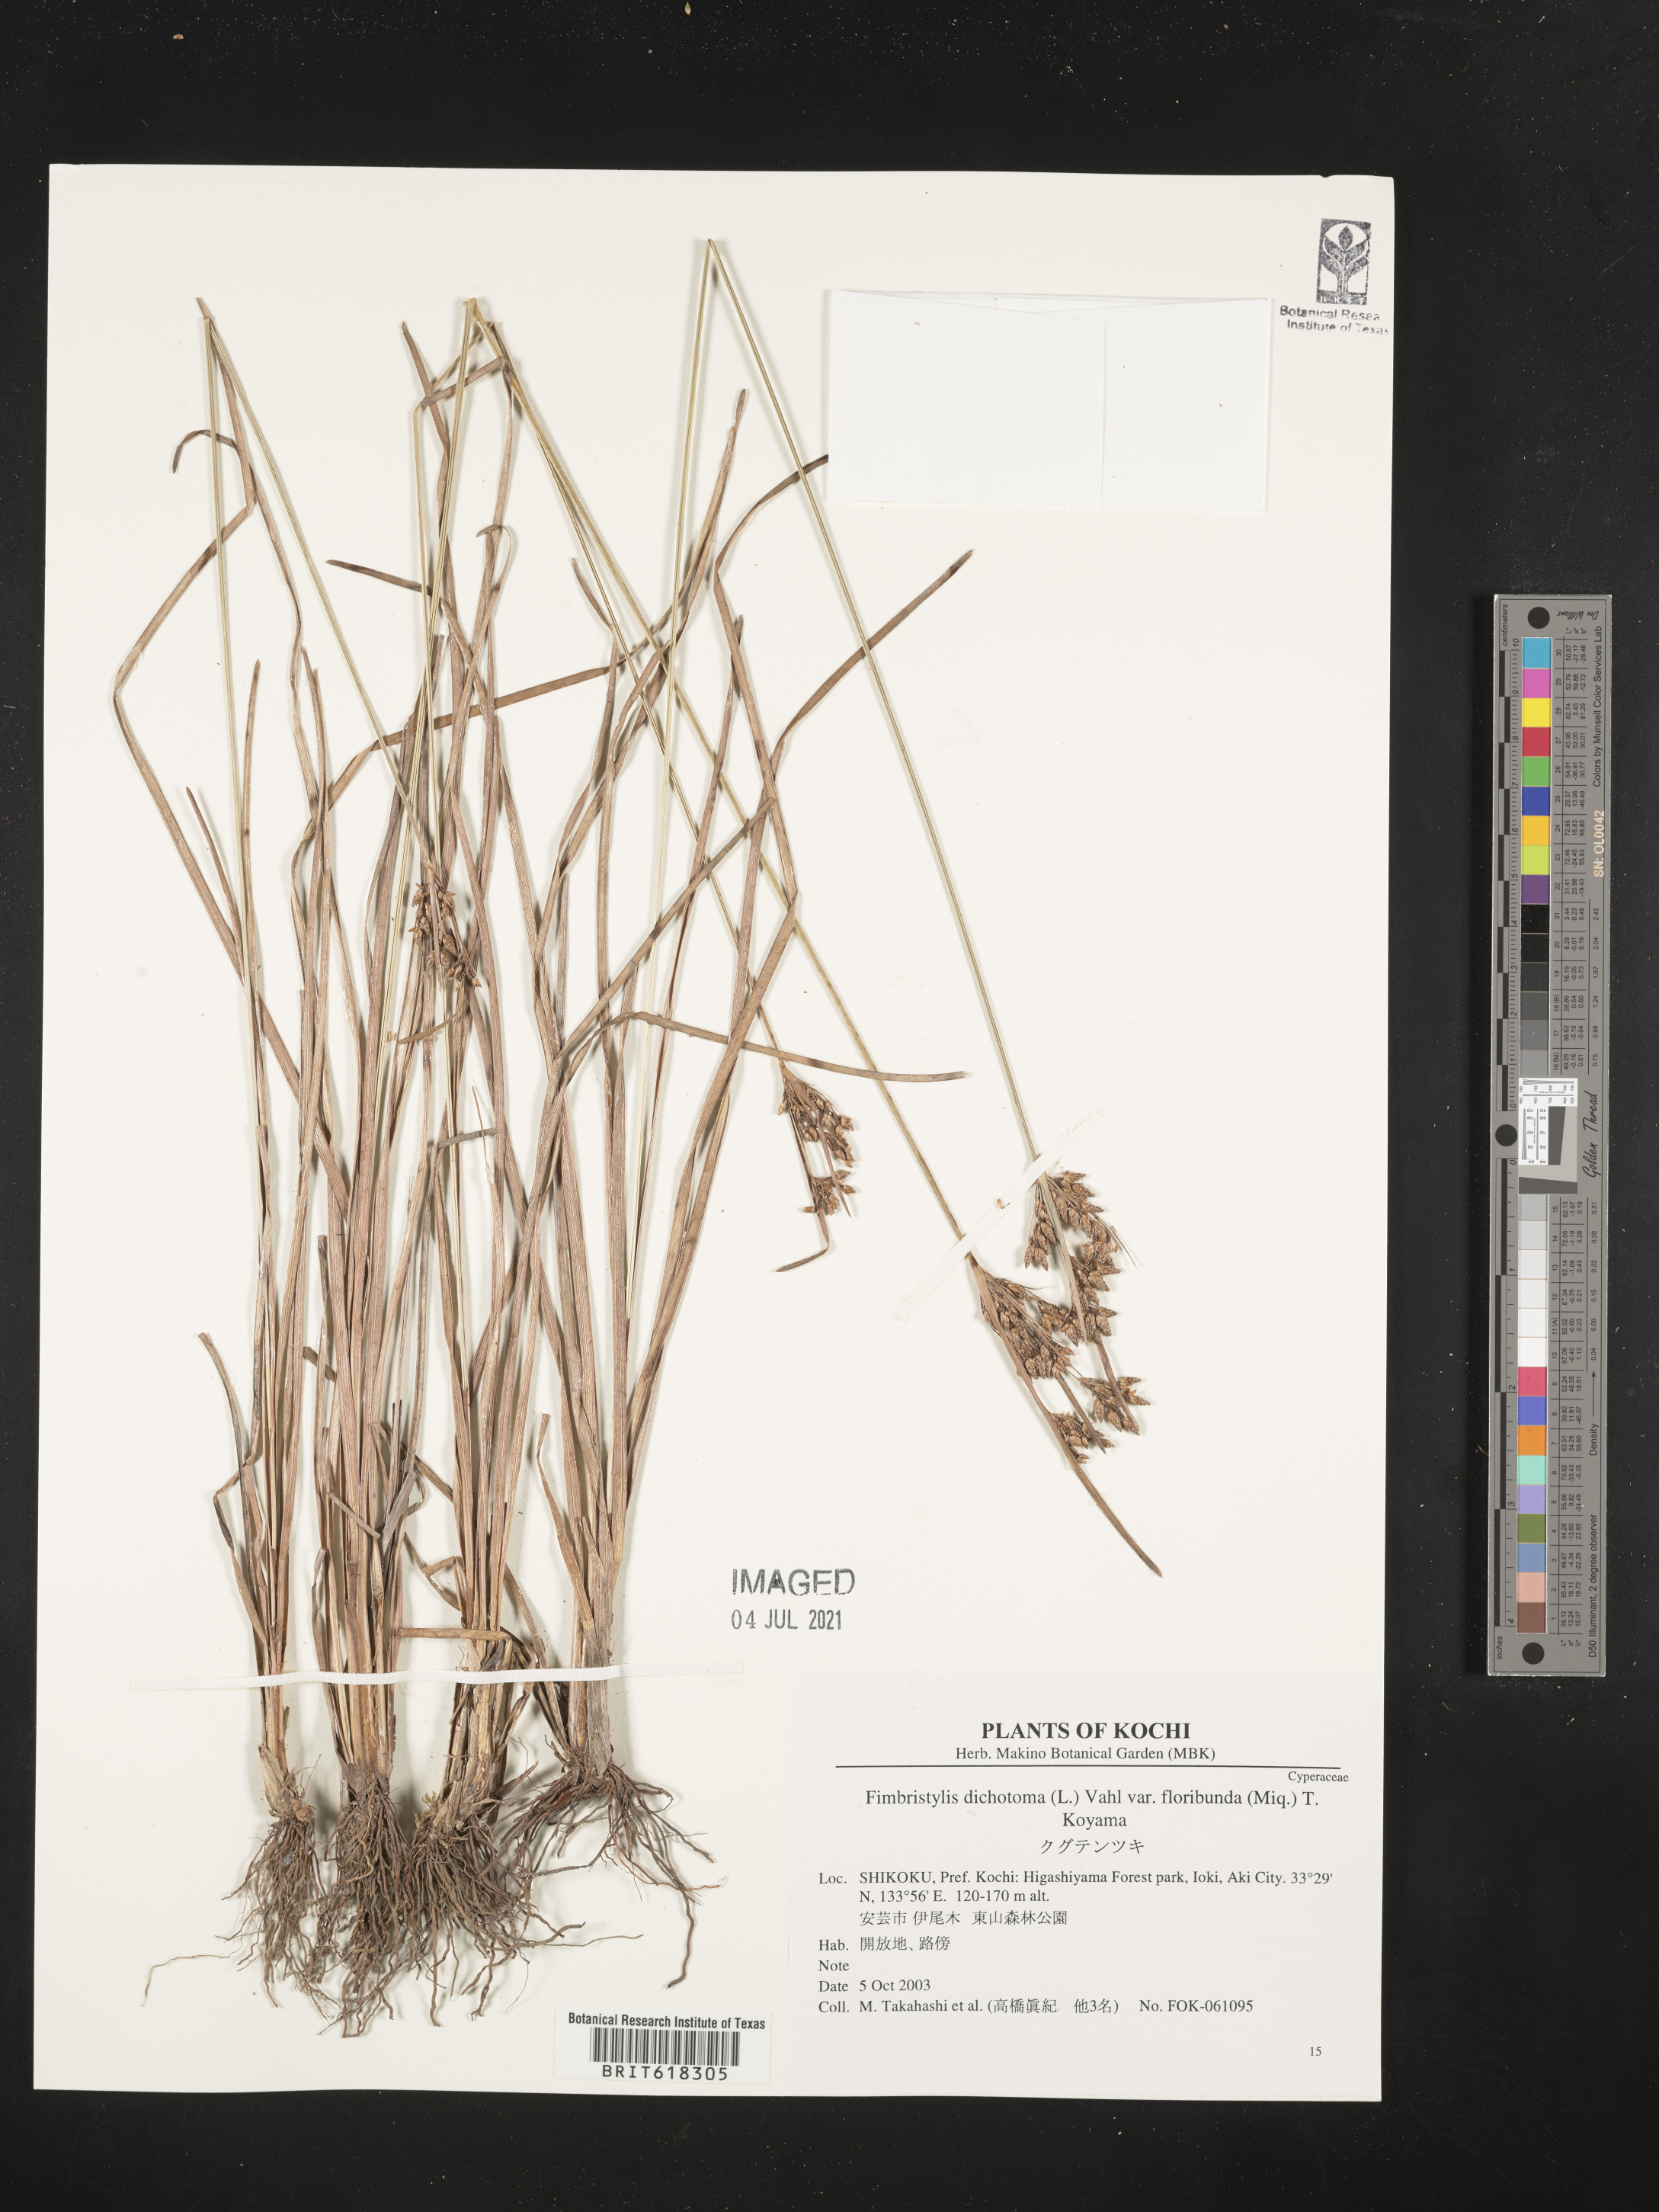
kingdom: Plantae
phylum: Tracheophyta
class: Liliopsida
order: Poales
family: Cyperaceae
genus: Fimbristylis
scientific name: Fimbristylis dichotoma
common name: Forked fimbry
